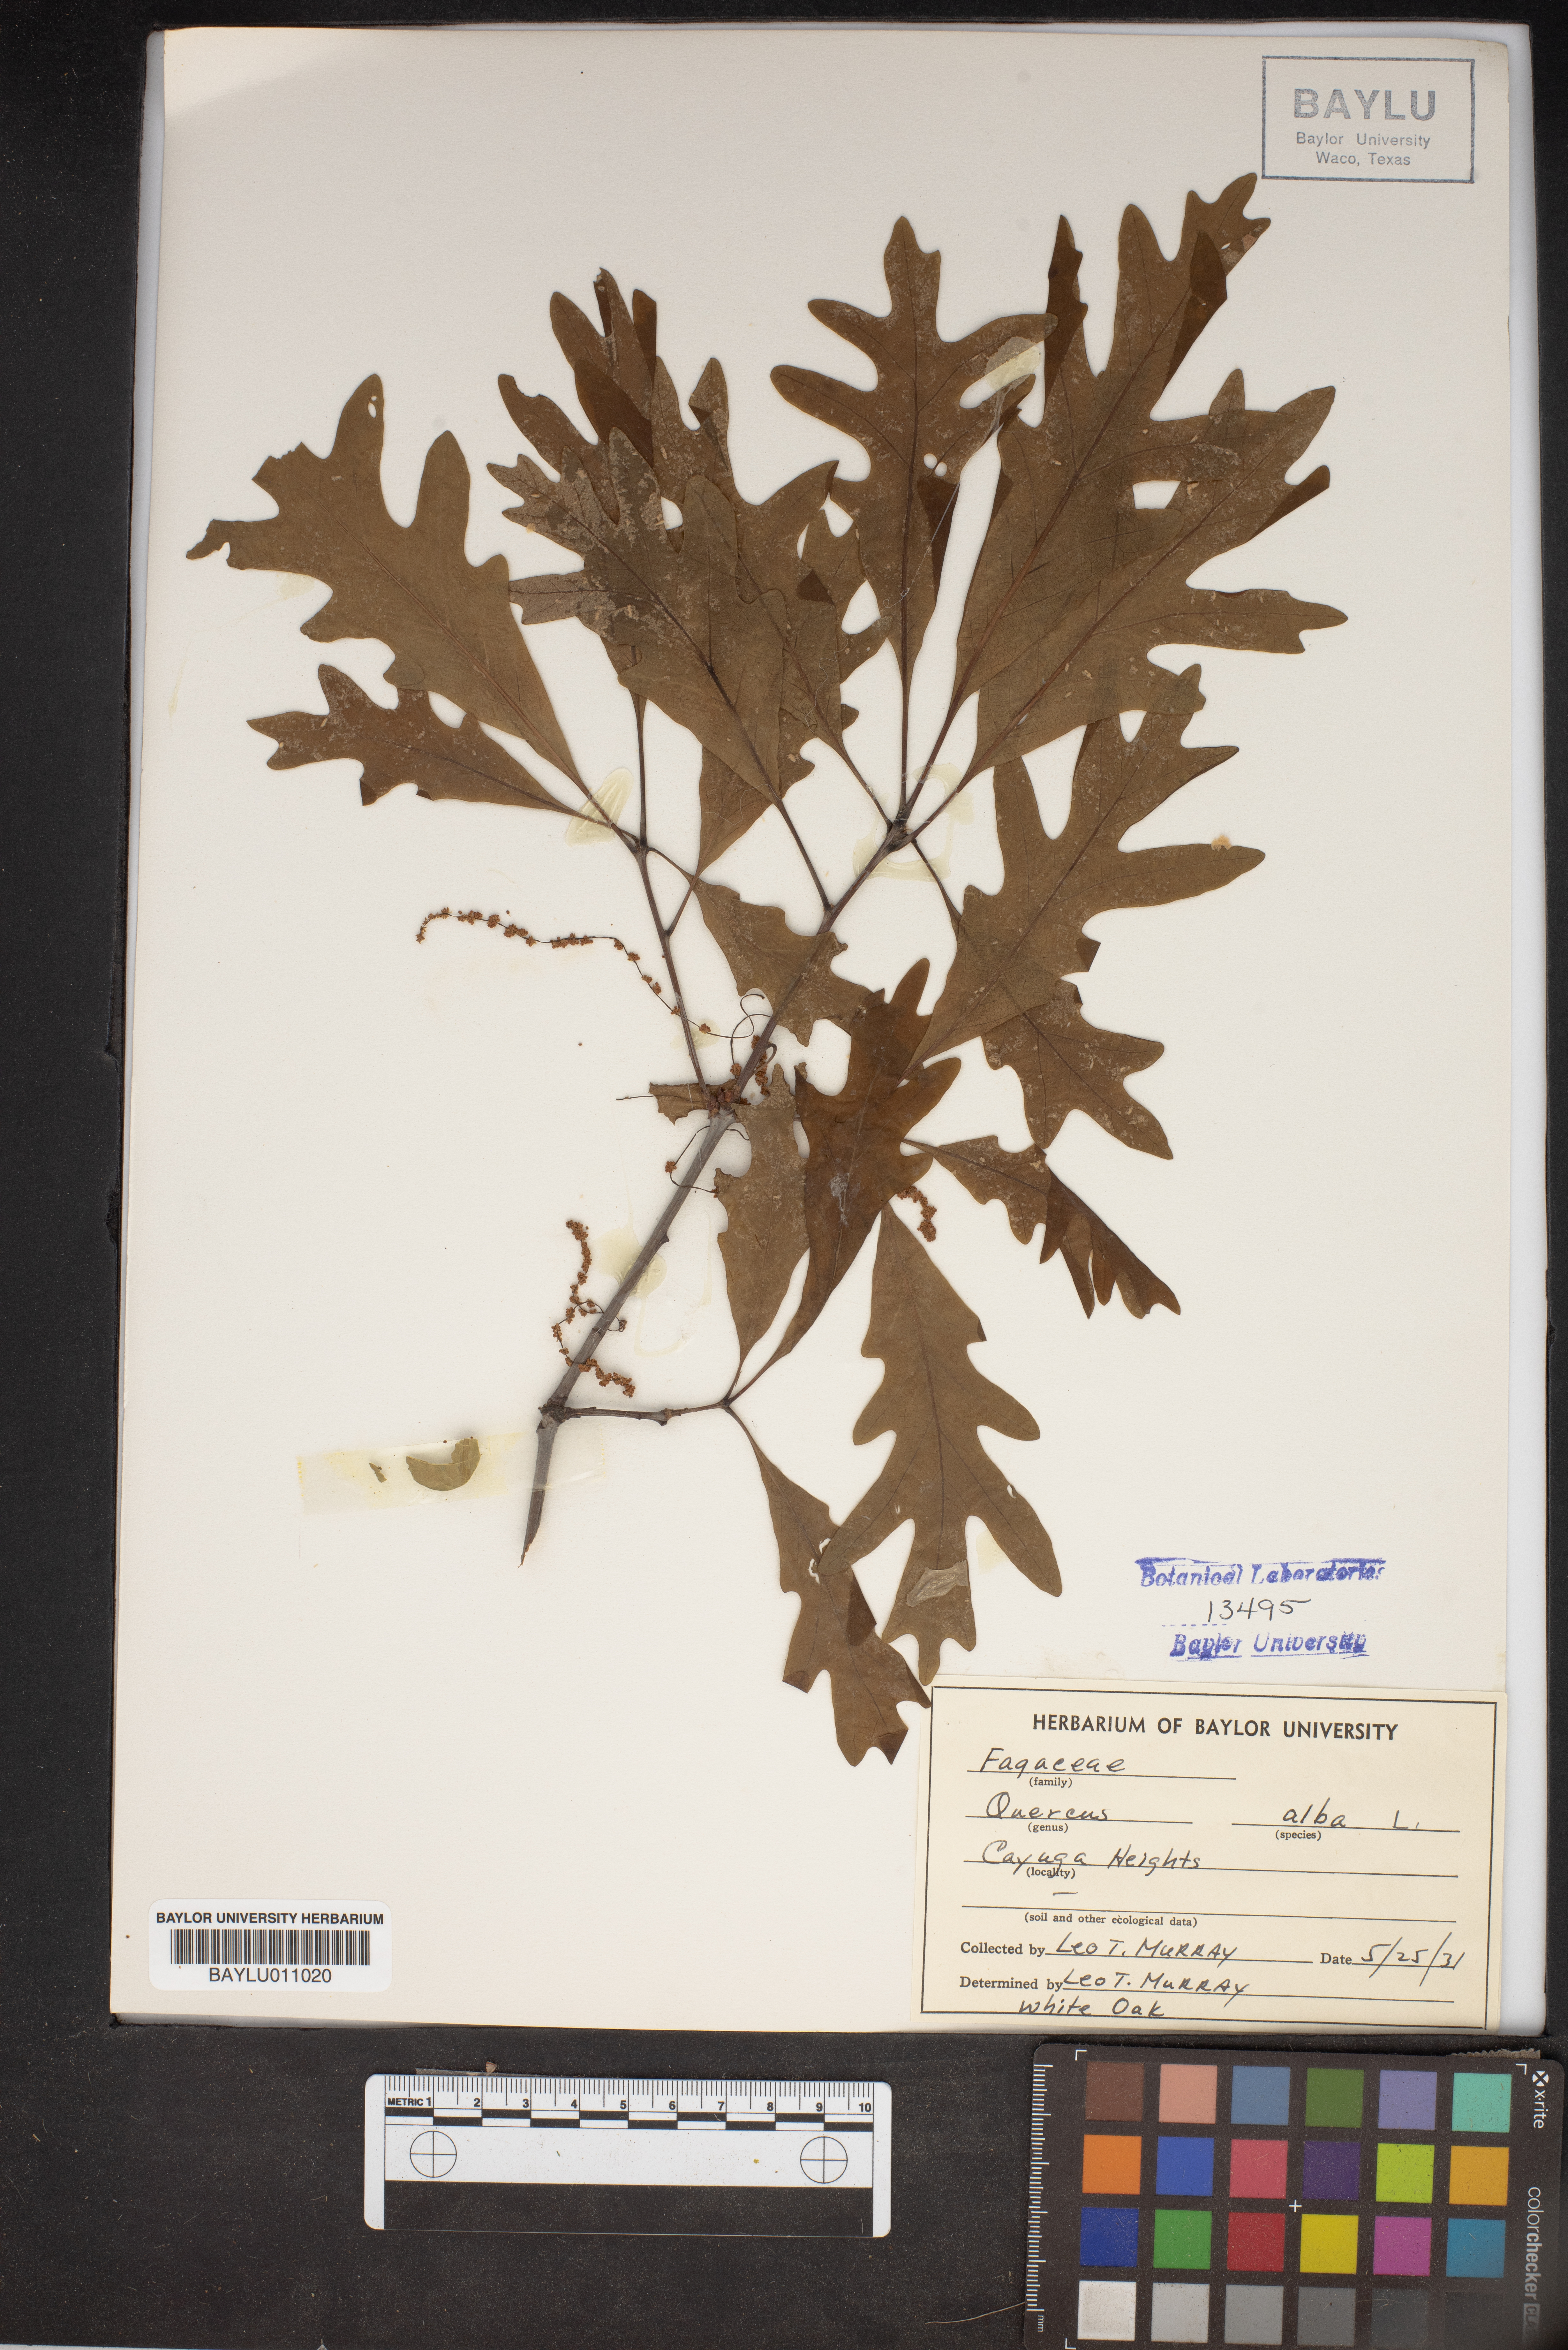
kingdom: Plantae
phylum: Tracheophyta
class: Magnoliopsida
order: Fagales
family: Fagaceae
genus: Quercus
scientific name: Quercus alba
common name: White oak
